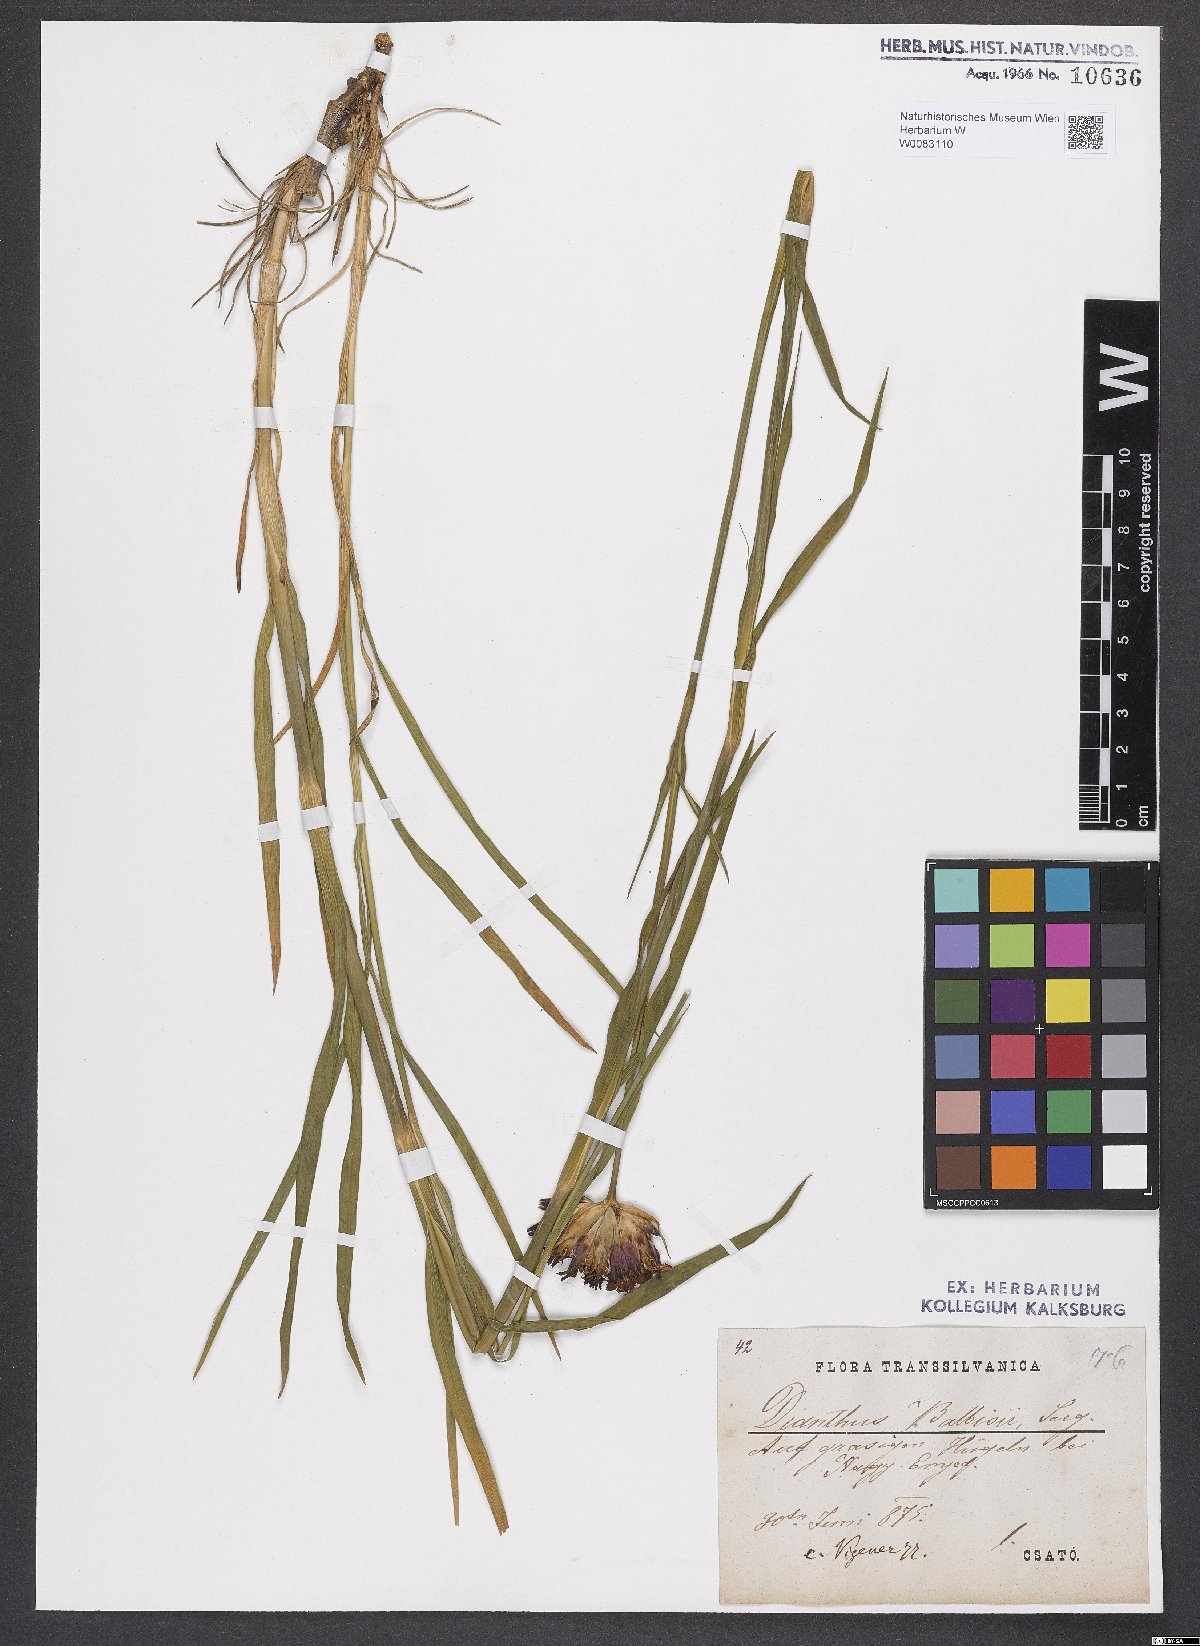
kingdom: Plantae
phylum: Tracheophyta
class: Magnoliopsida
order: Caryophyllales
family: Caryophyllaceae
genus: Dianthus
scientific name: Dianthus crassipes
